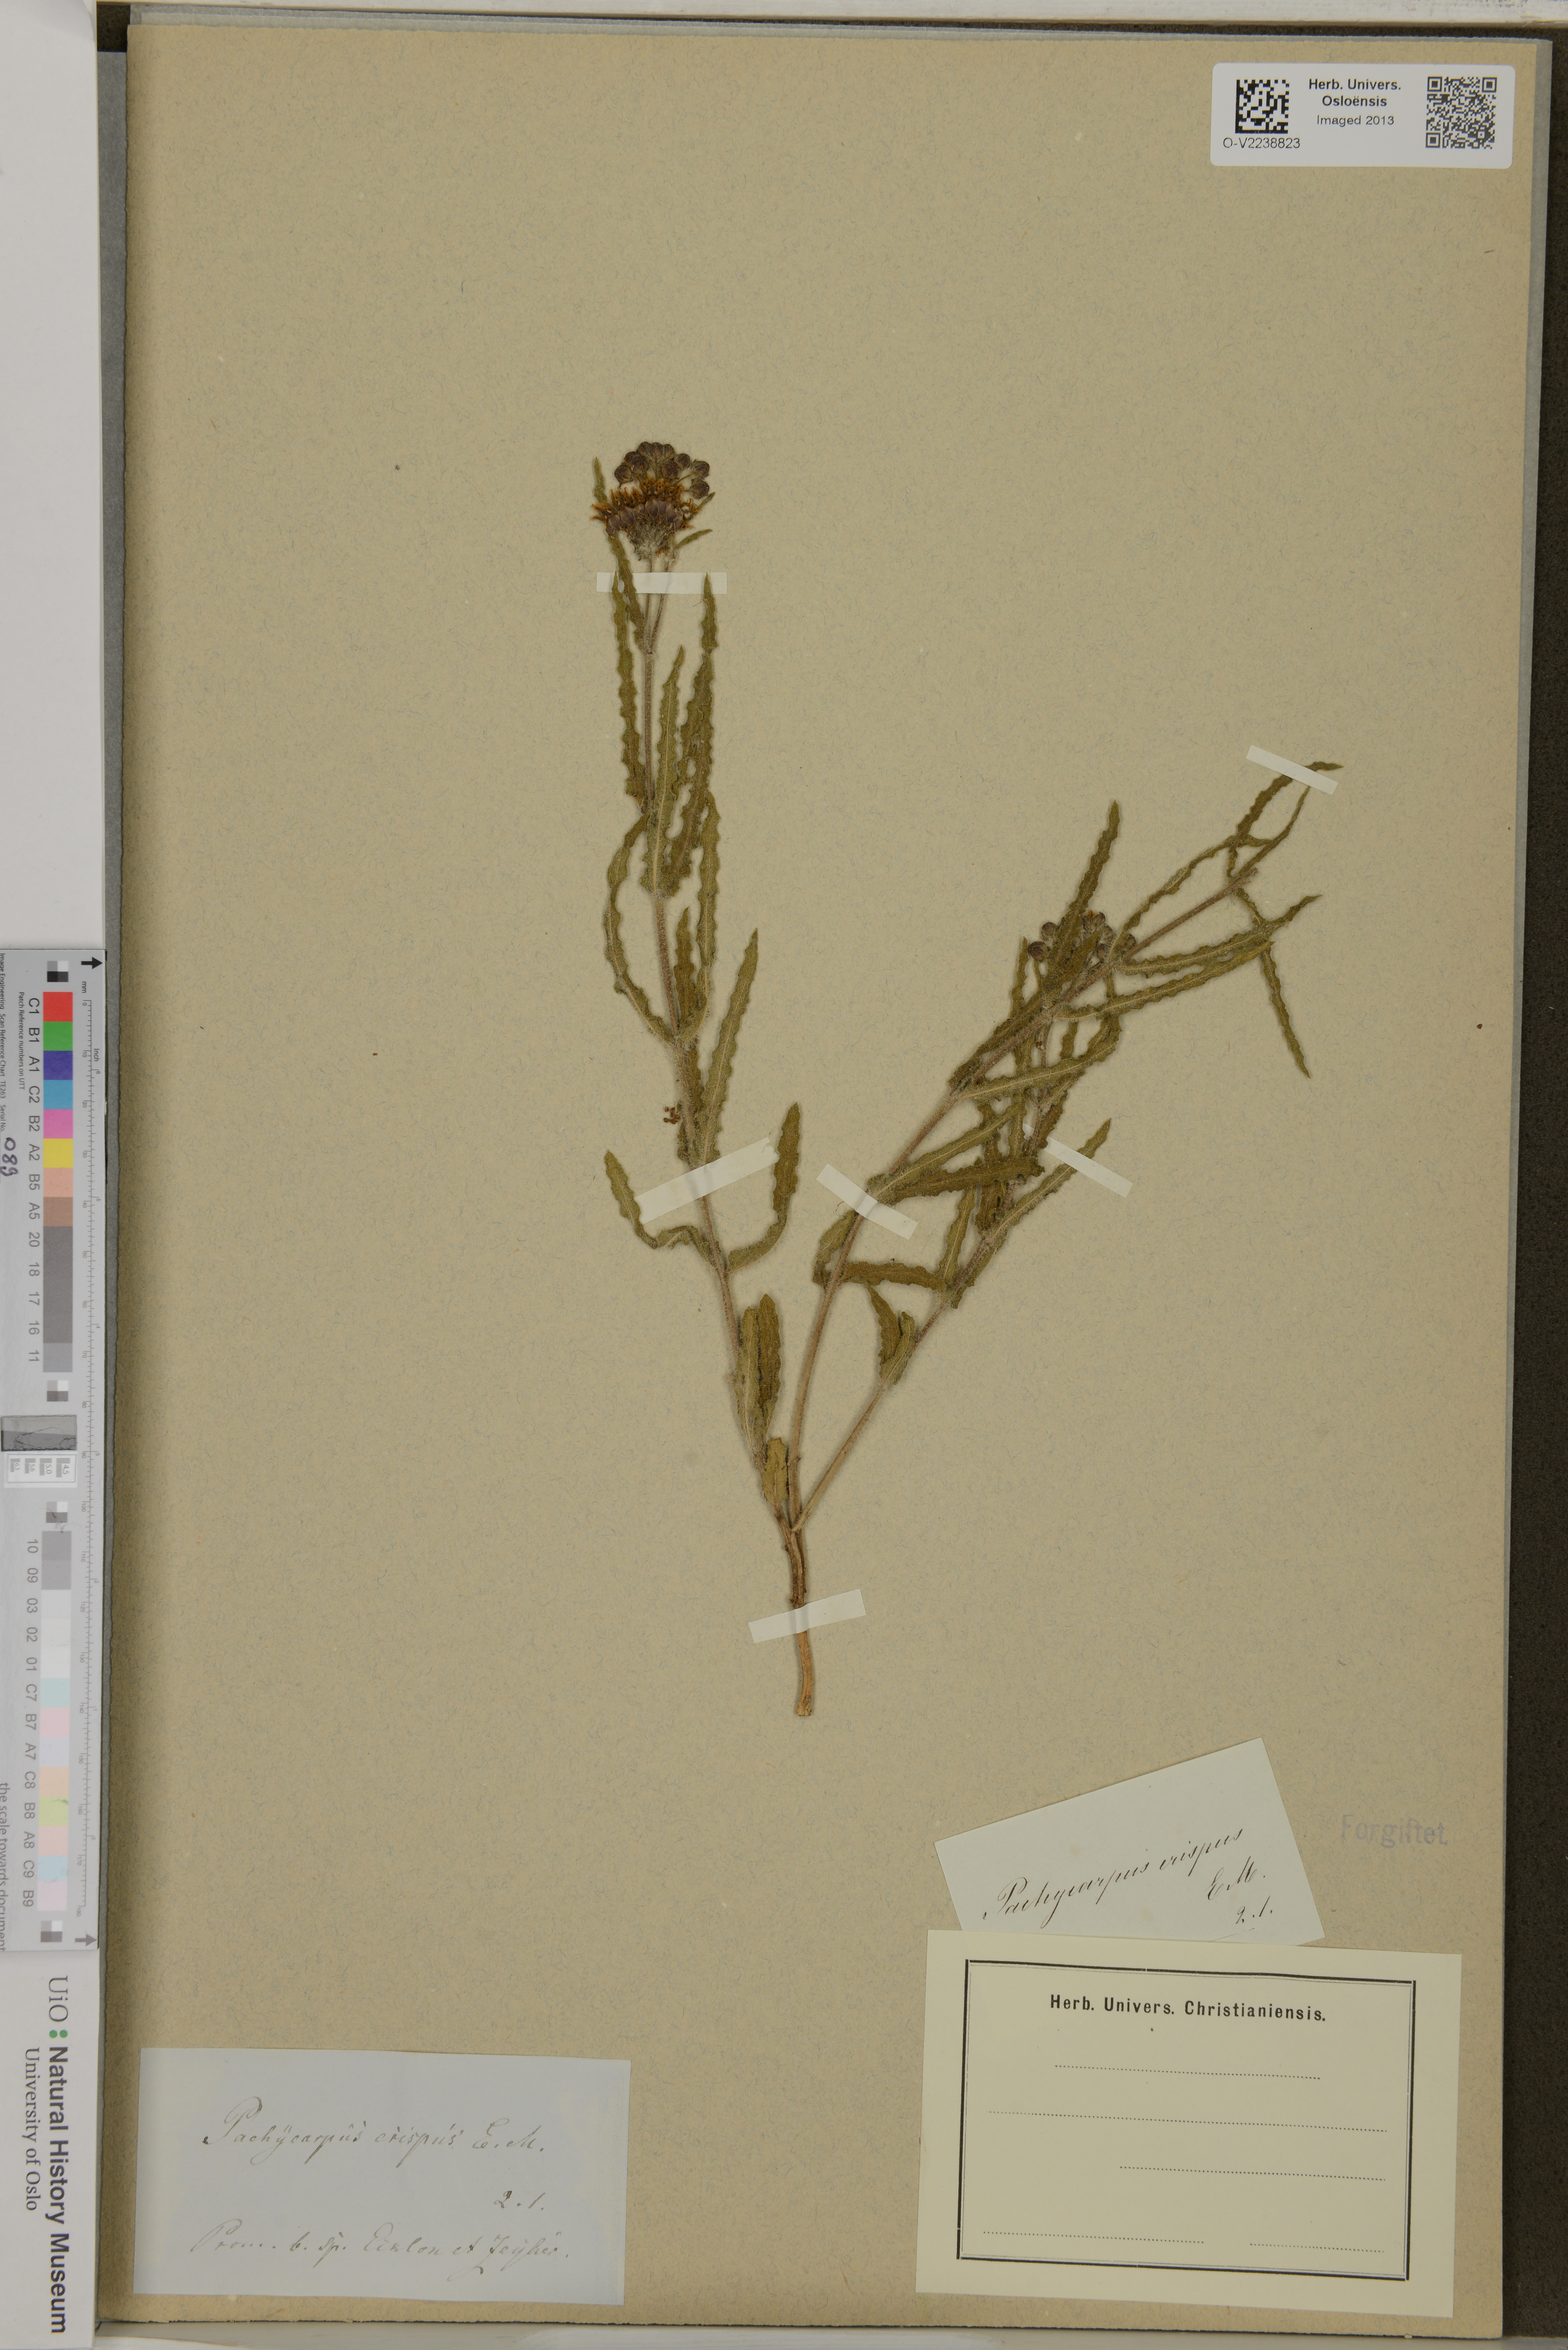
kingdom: Plantae
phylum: Tracheophyta
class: Magnoliopsida
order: Gentianales
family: Apocynaceae
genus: Asclepias
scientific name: Asclepias crispa
